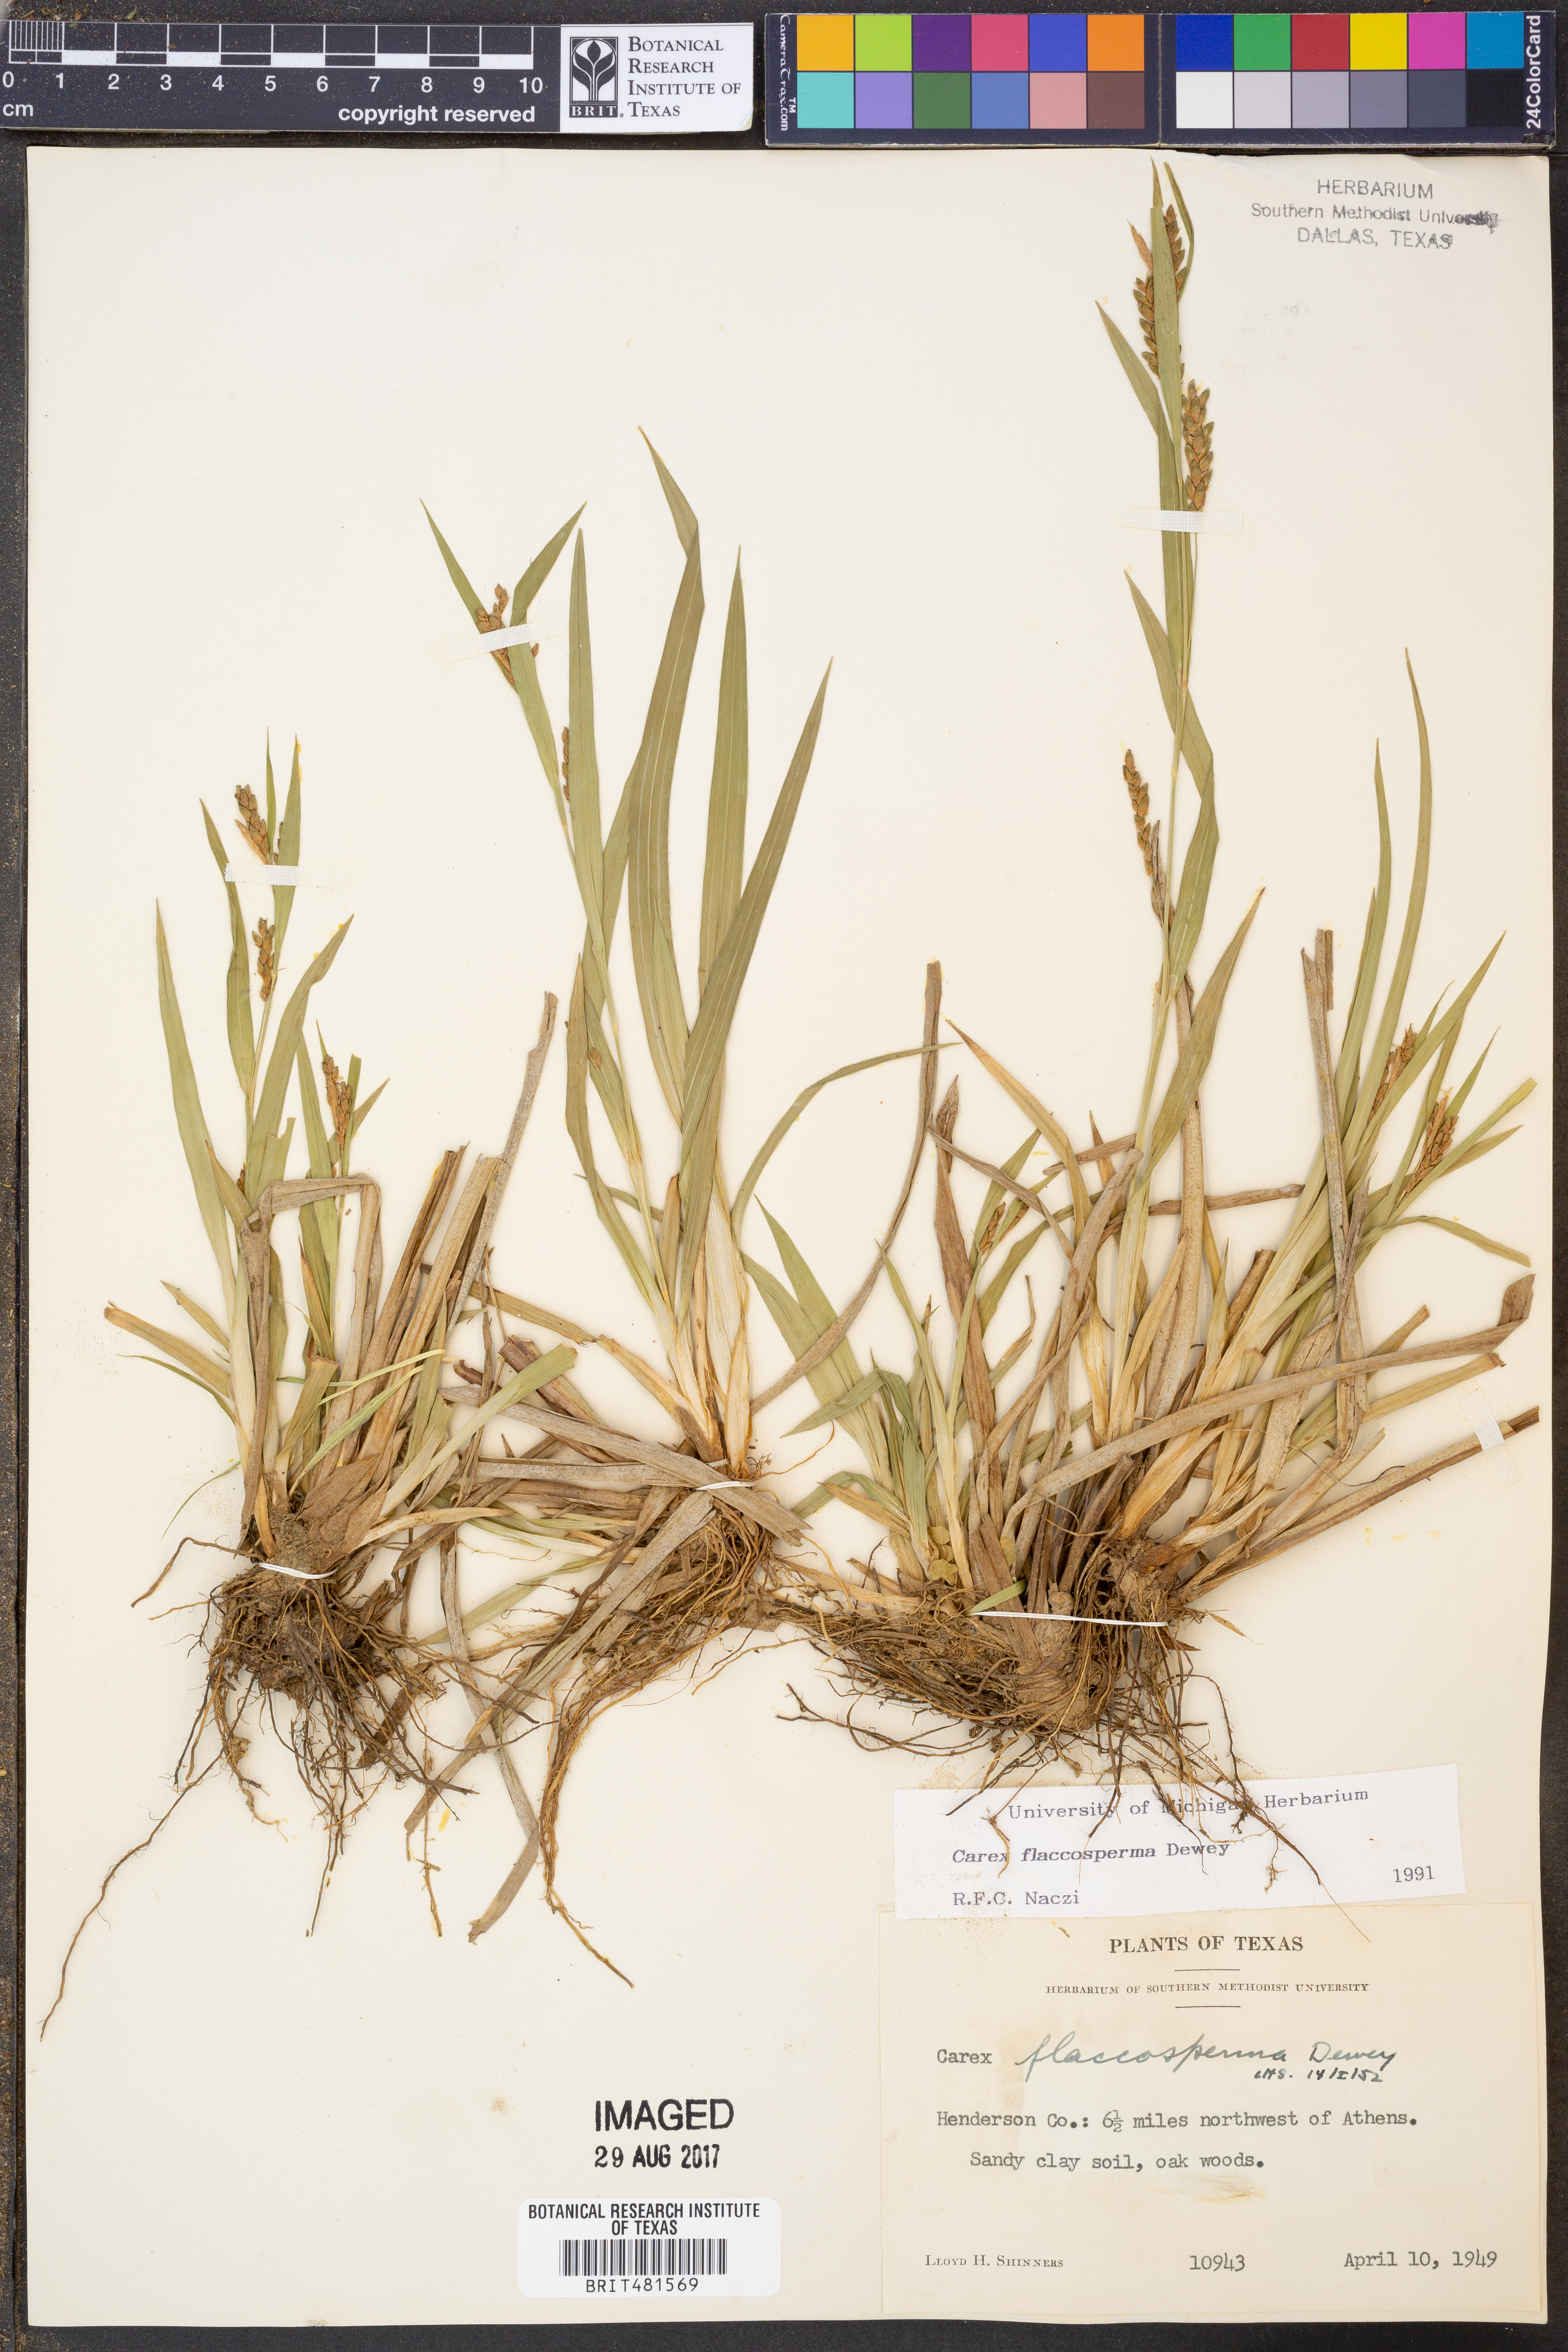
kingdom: Plantae
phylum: Tracheophyta
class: Liliopsida
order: Poales
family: Cyperaceae
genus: Carex
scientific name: Carex flaccosperma
